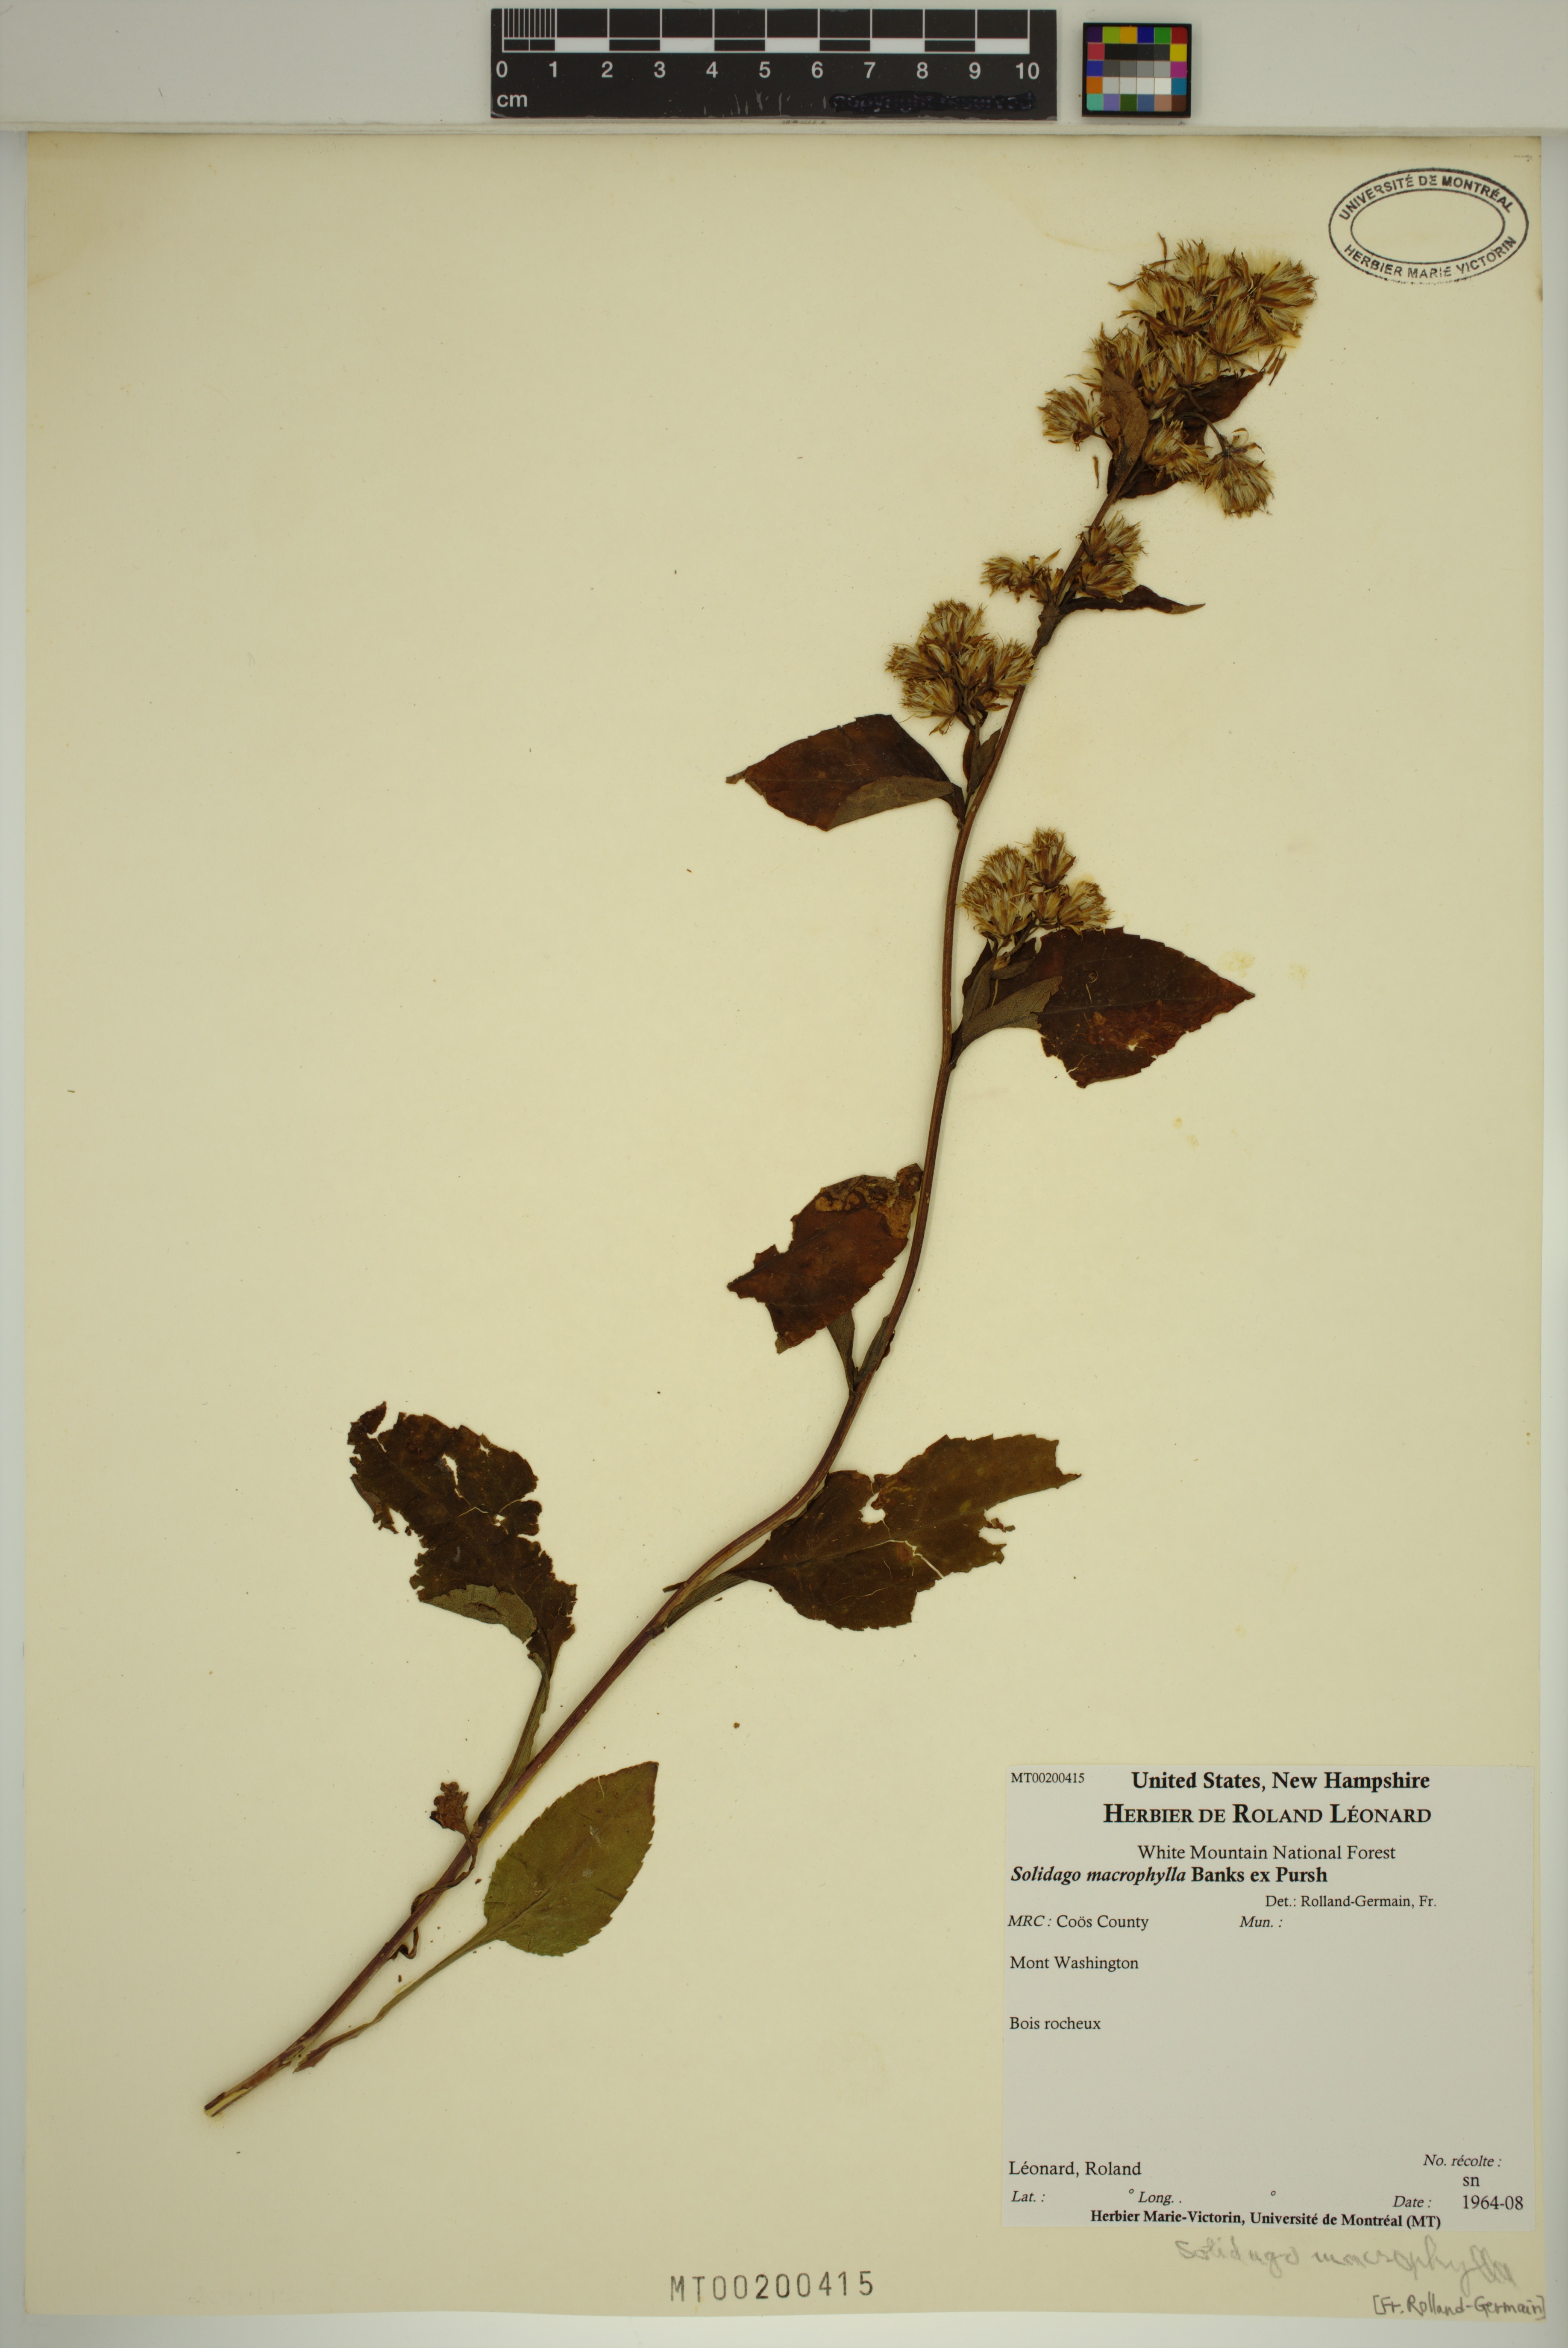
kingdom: Plantae
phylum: Tracheophyta
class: Magnoliopsida
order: Asterales
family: Asteraceae
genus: Solidago
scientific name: Solidago macrophylla
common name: Large-leaved goldenrod
